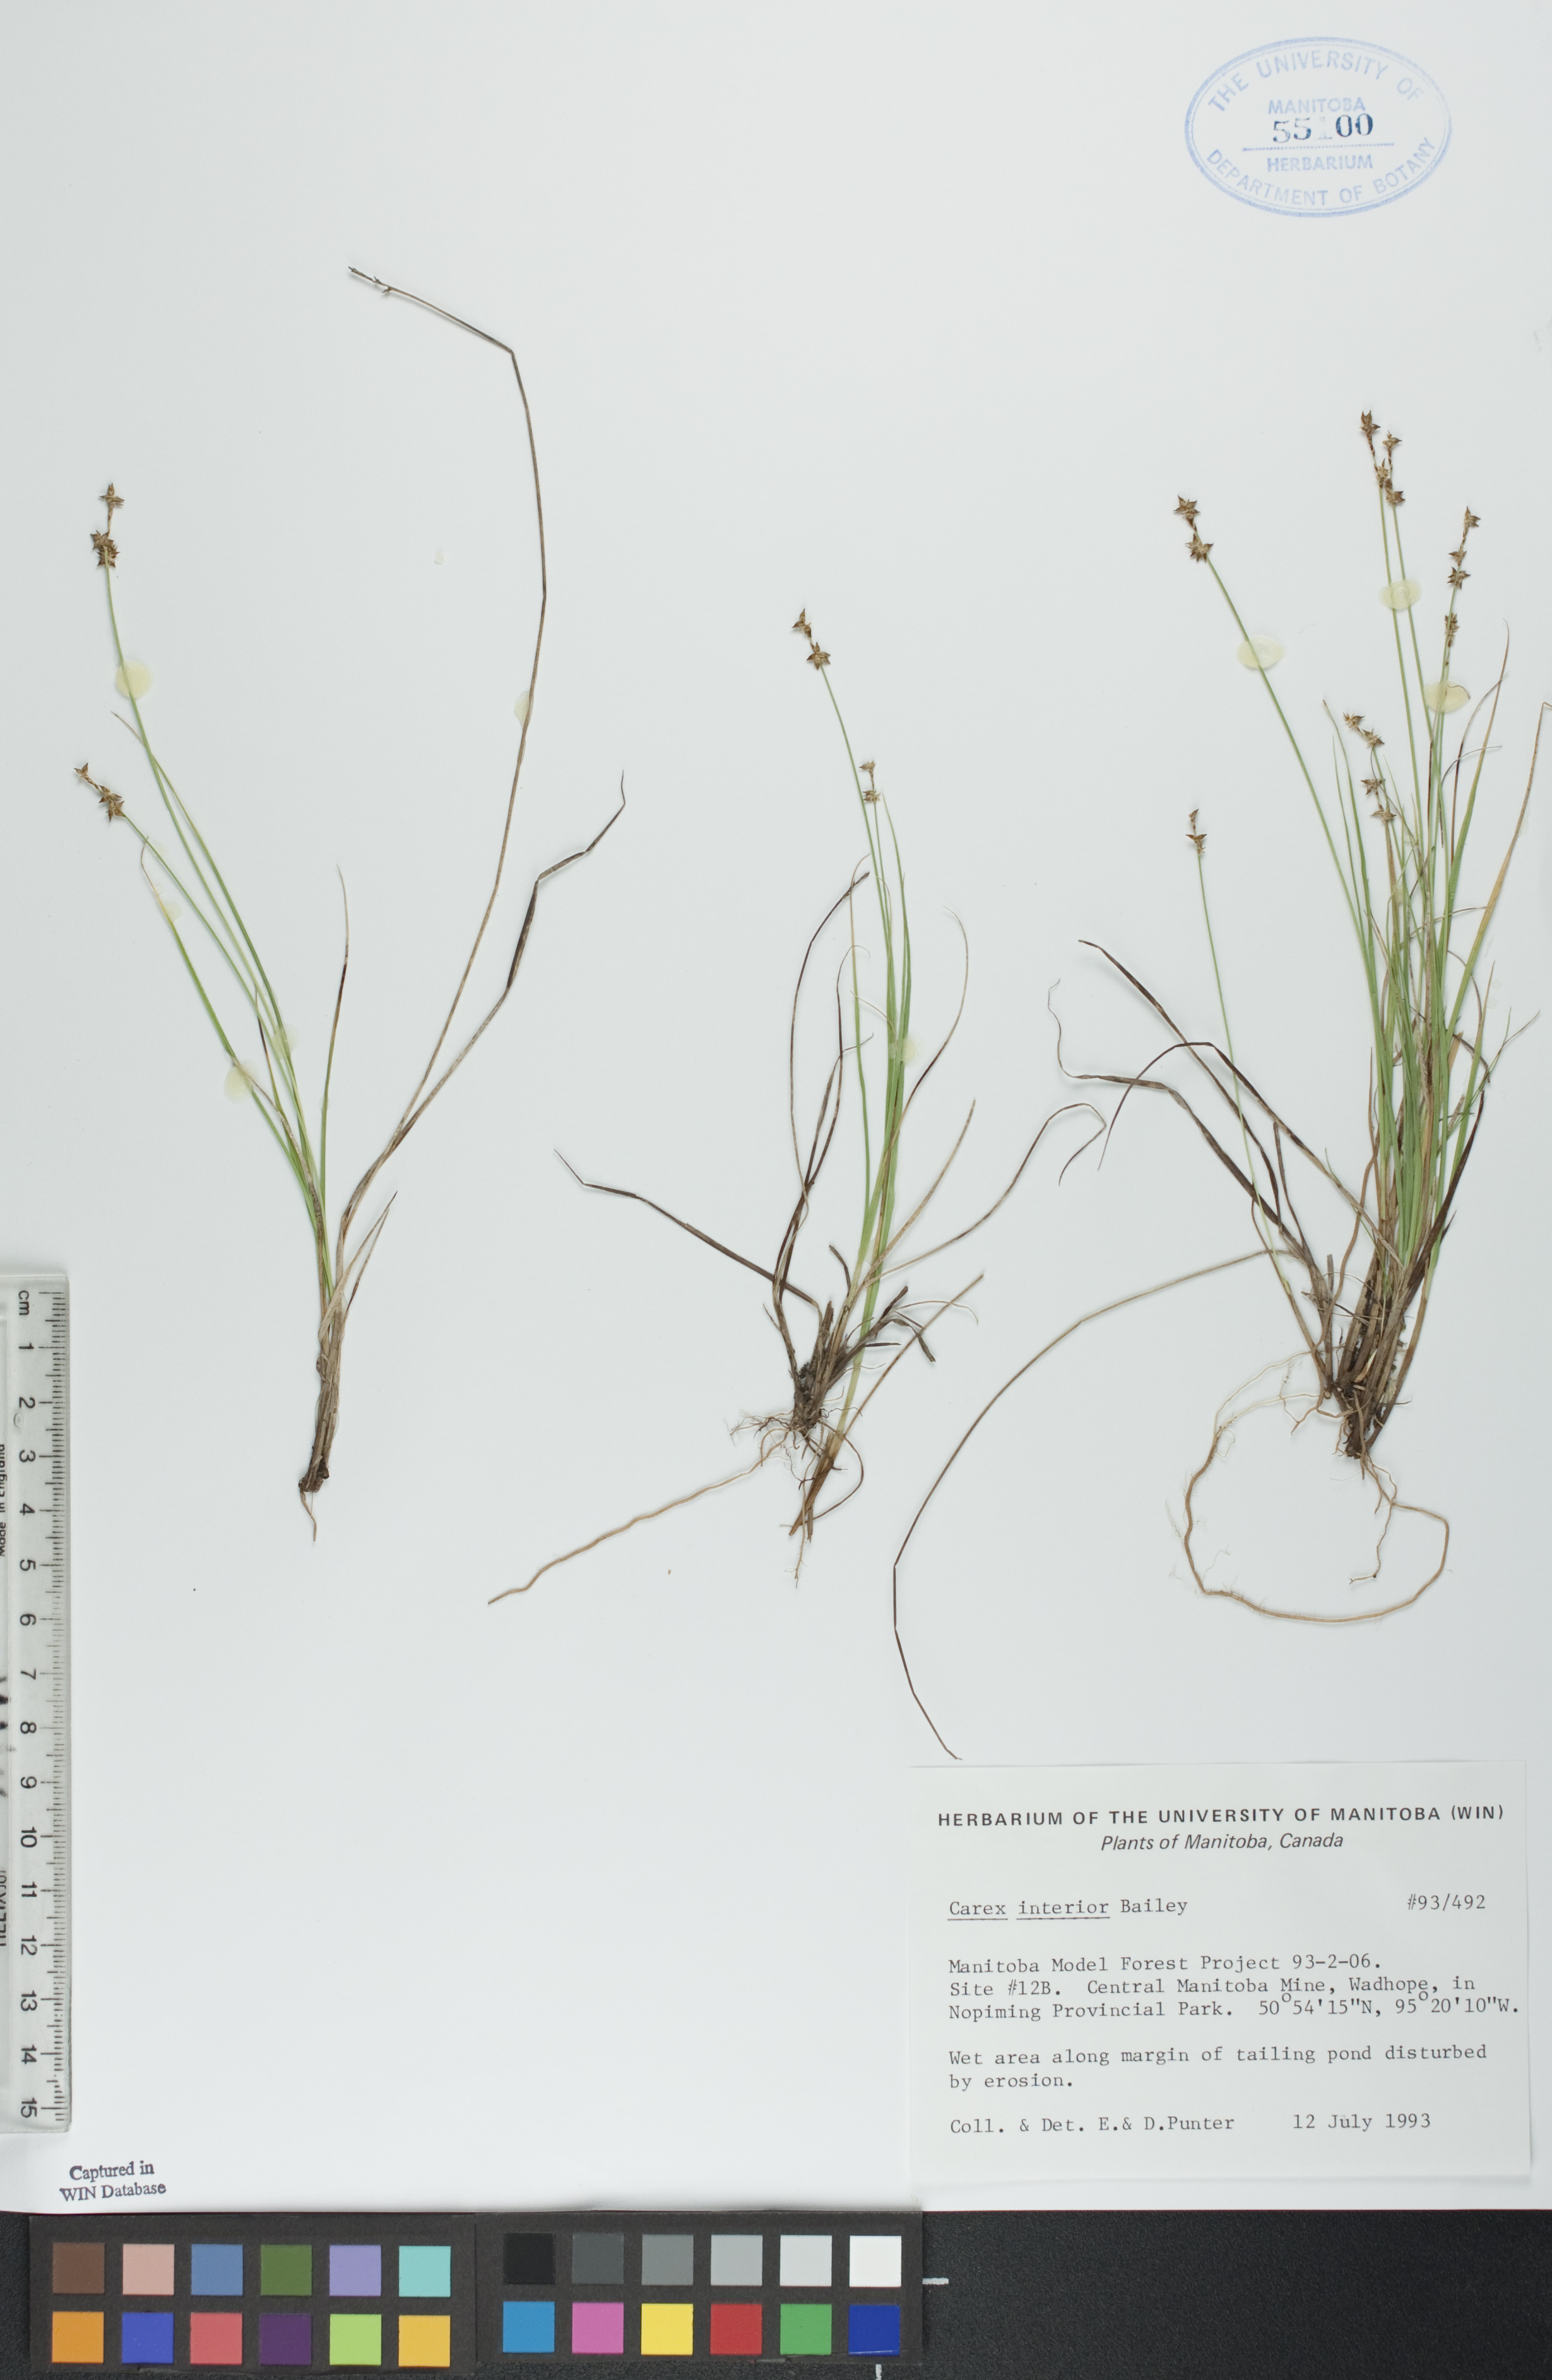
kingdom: Plantae
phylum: Tracheophyta
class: Liliopsida
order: Poales
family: Cyperaceae
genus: Carex
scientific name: Carex interior
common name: Inland sedge
